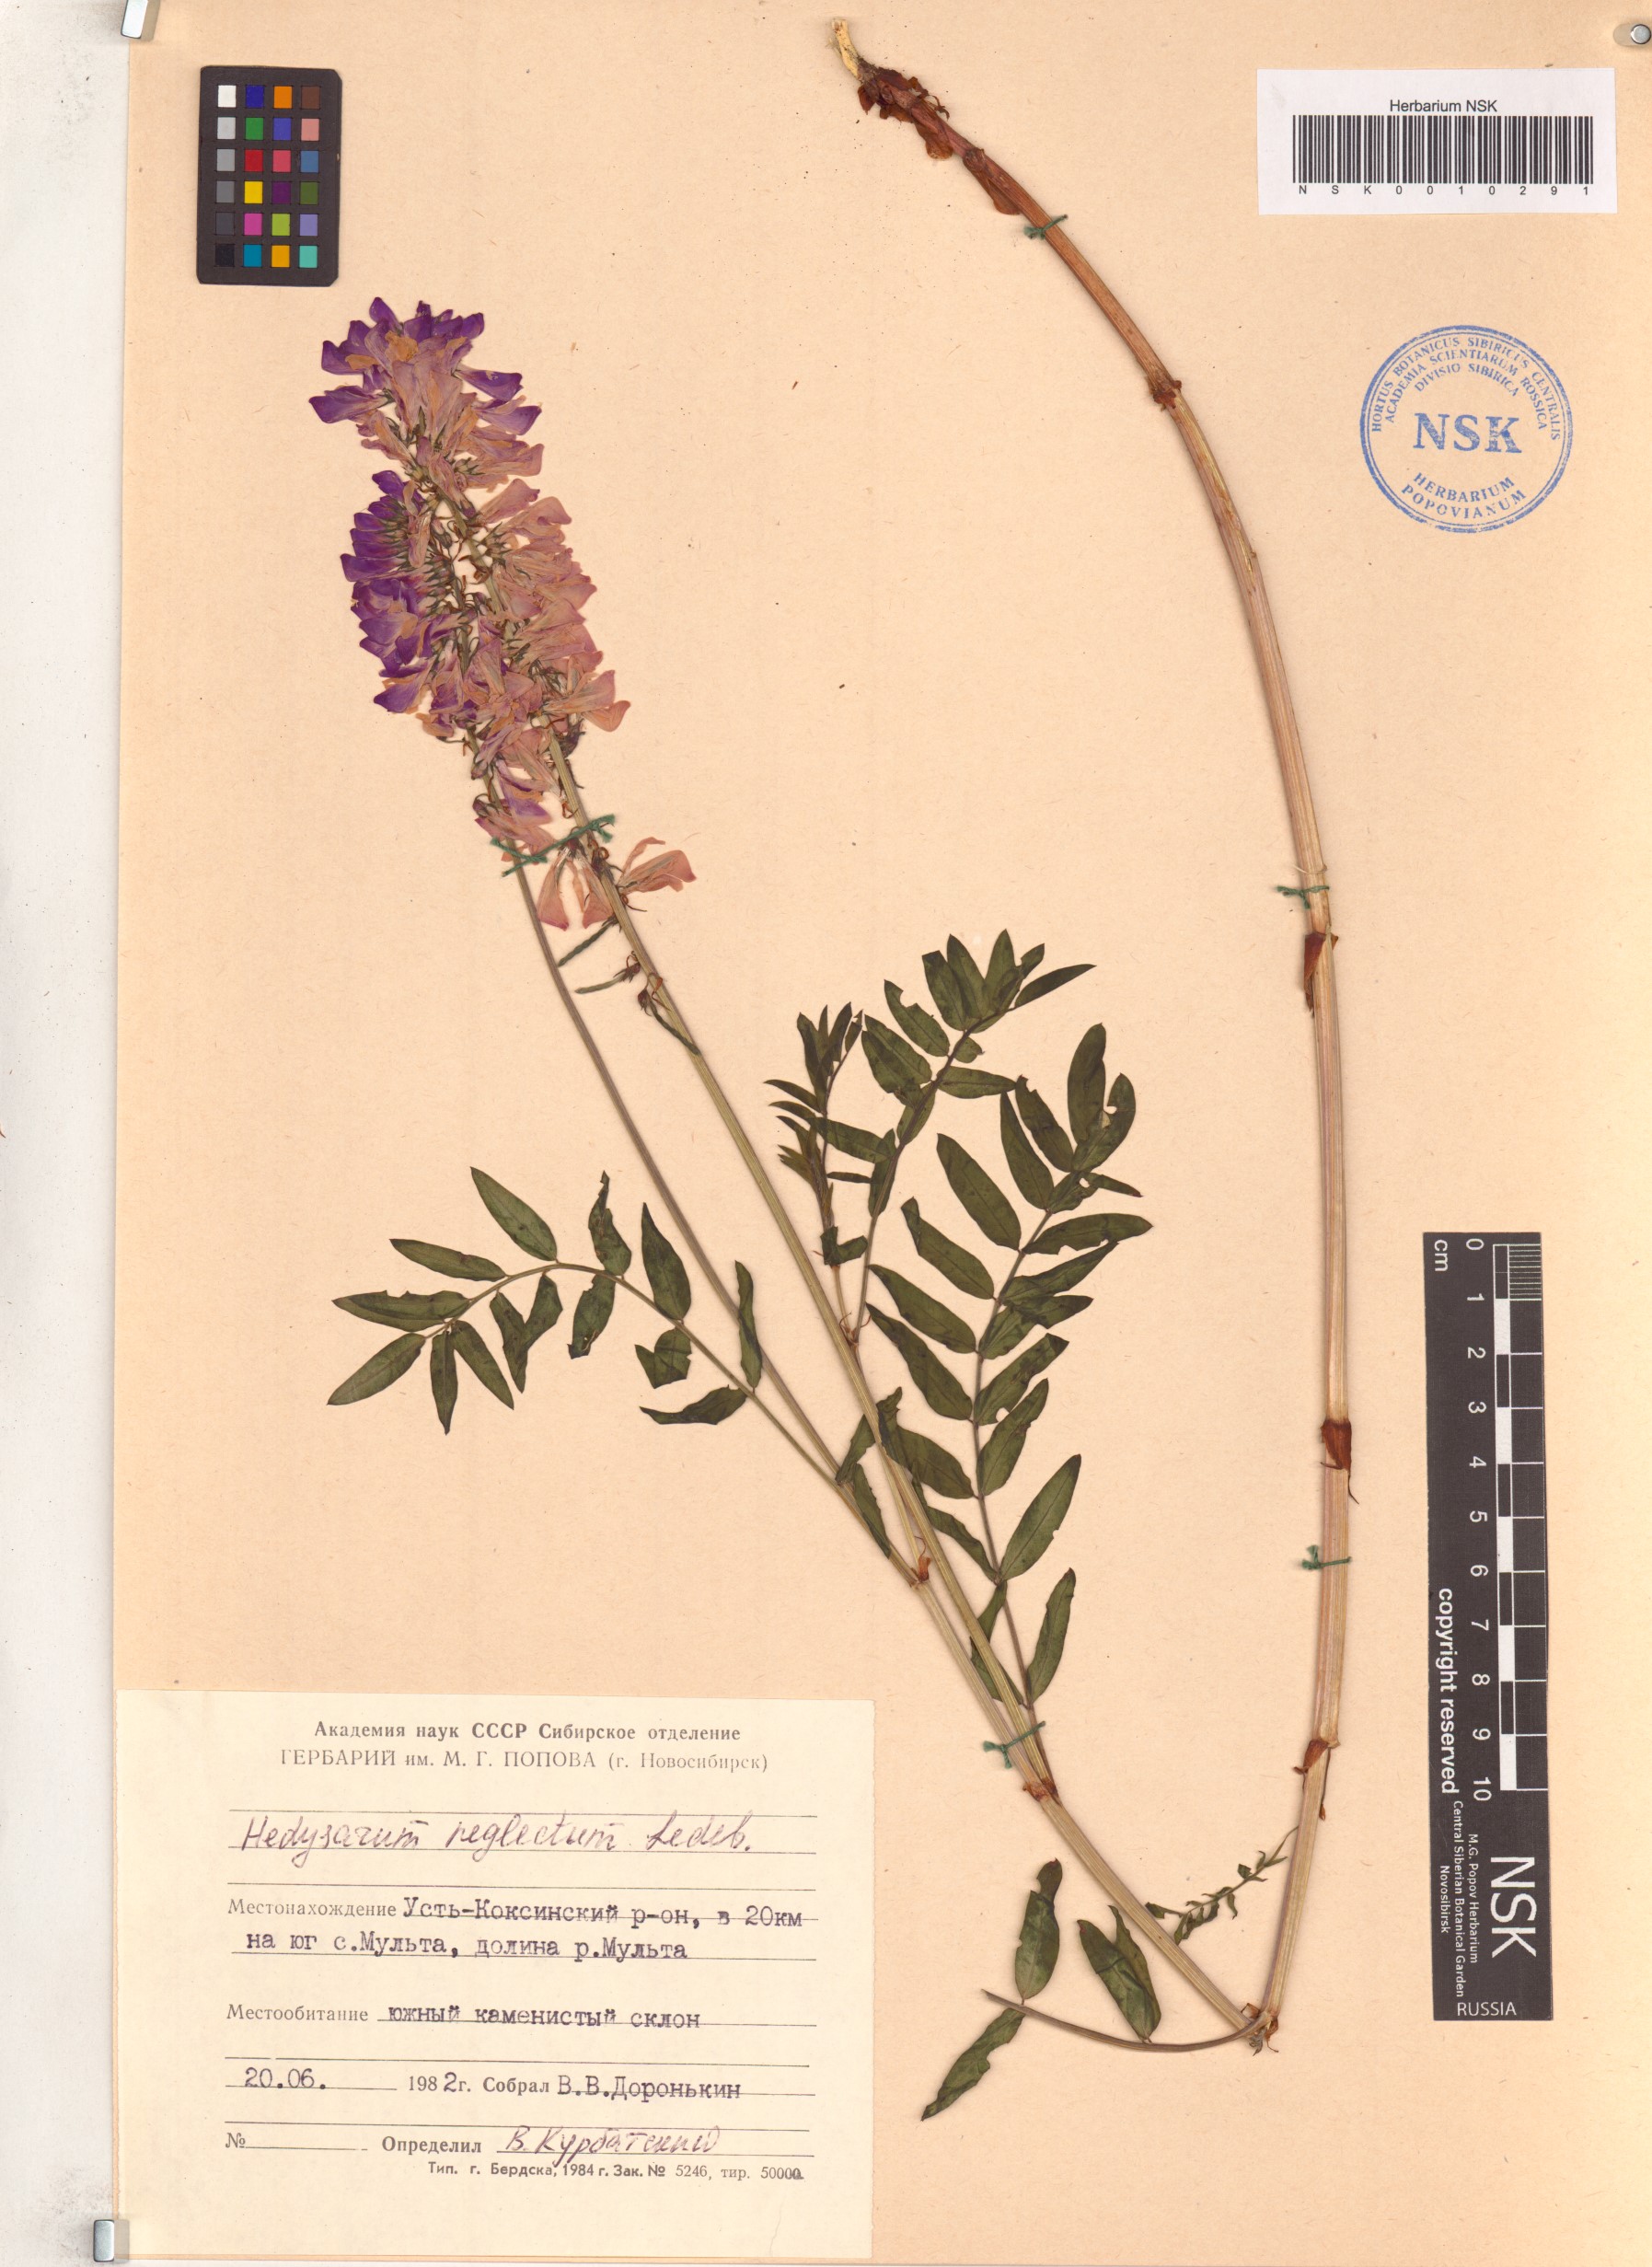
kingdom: Plantae
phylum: Tracheophyta
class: Magnoliopsida
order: Fabales
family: Fabaceae
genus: Hedysarum
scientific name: Hedysarum neglectum
